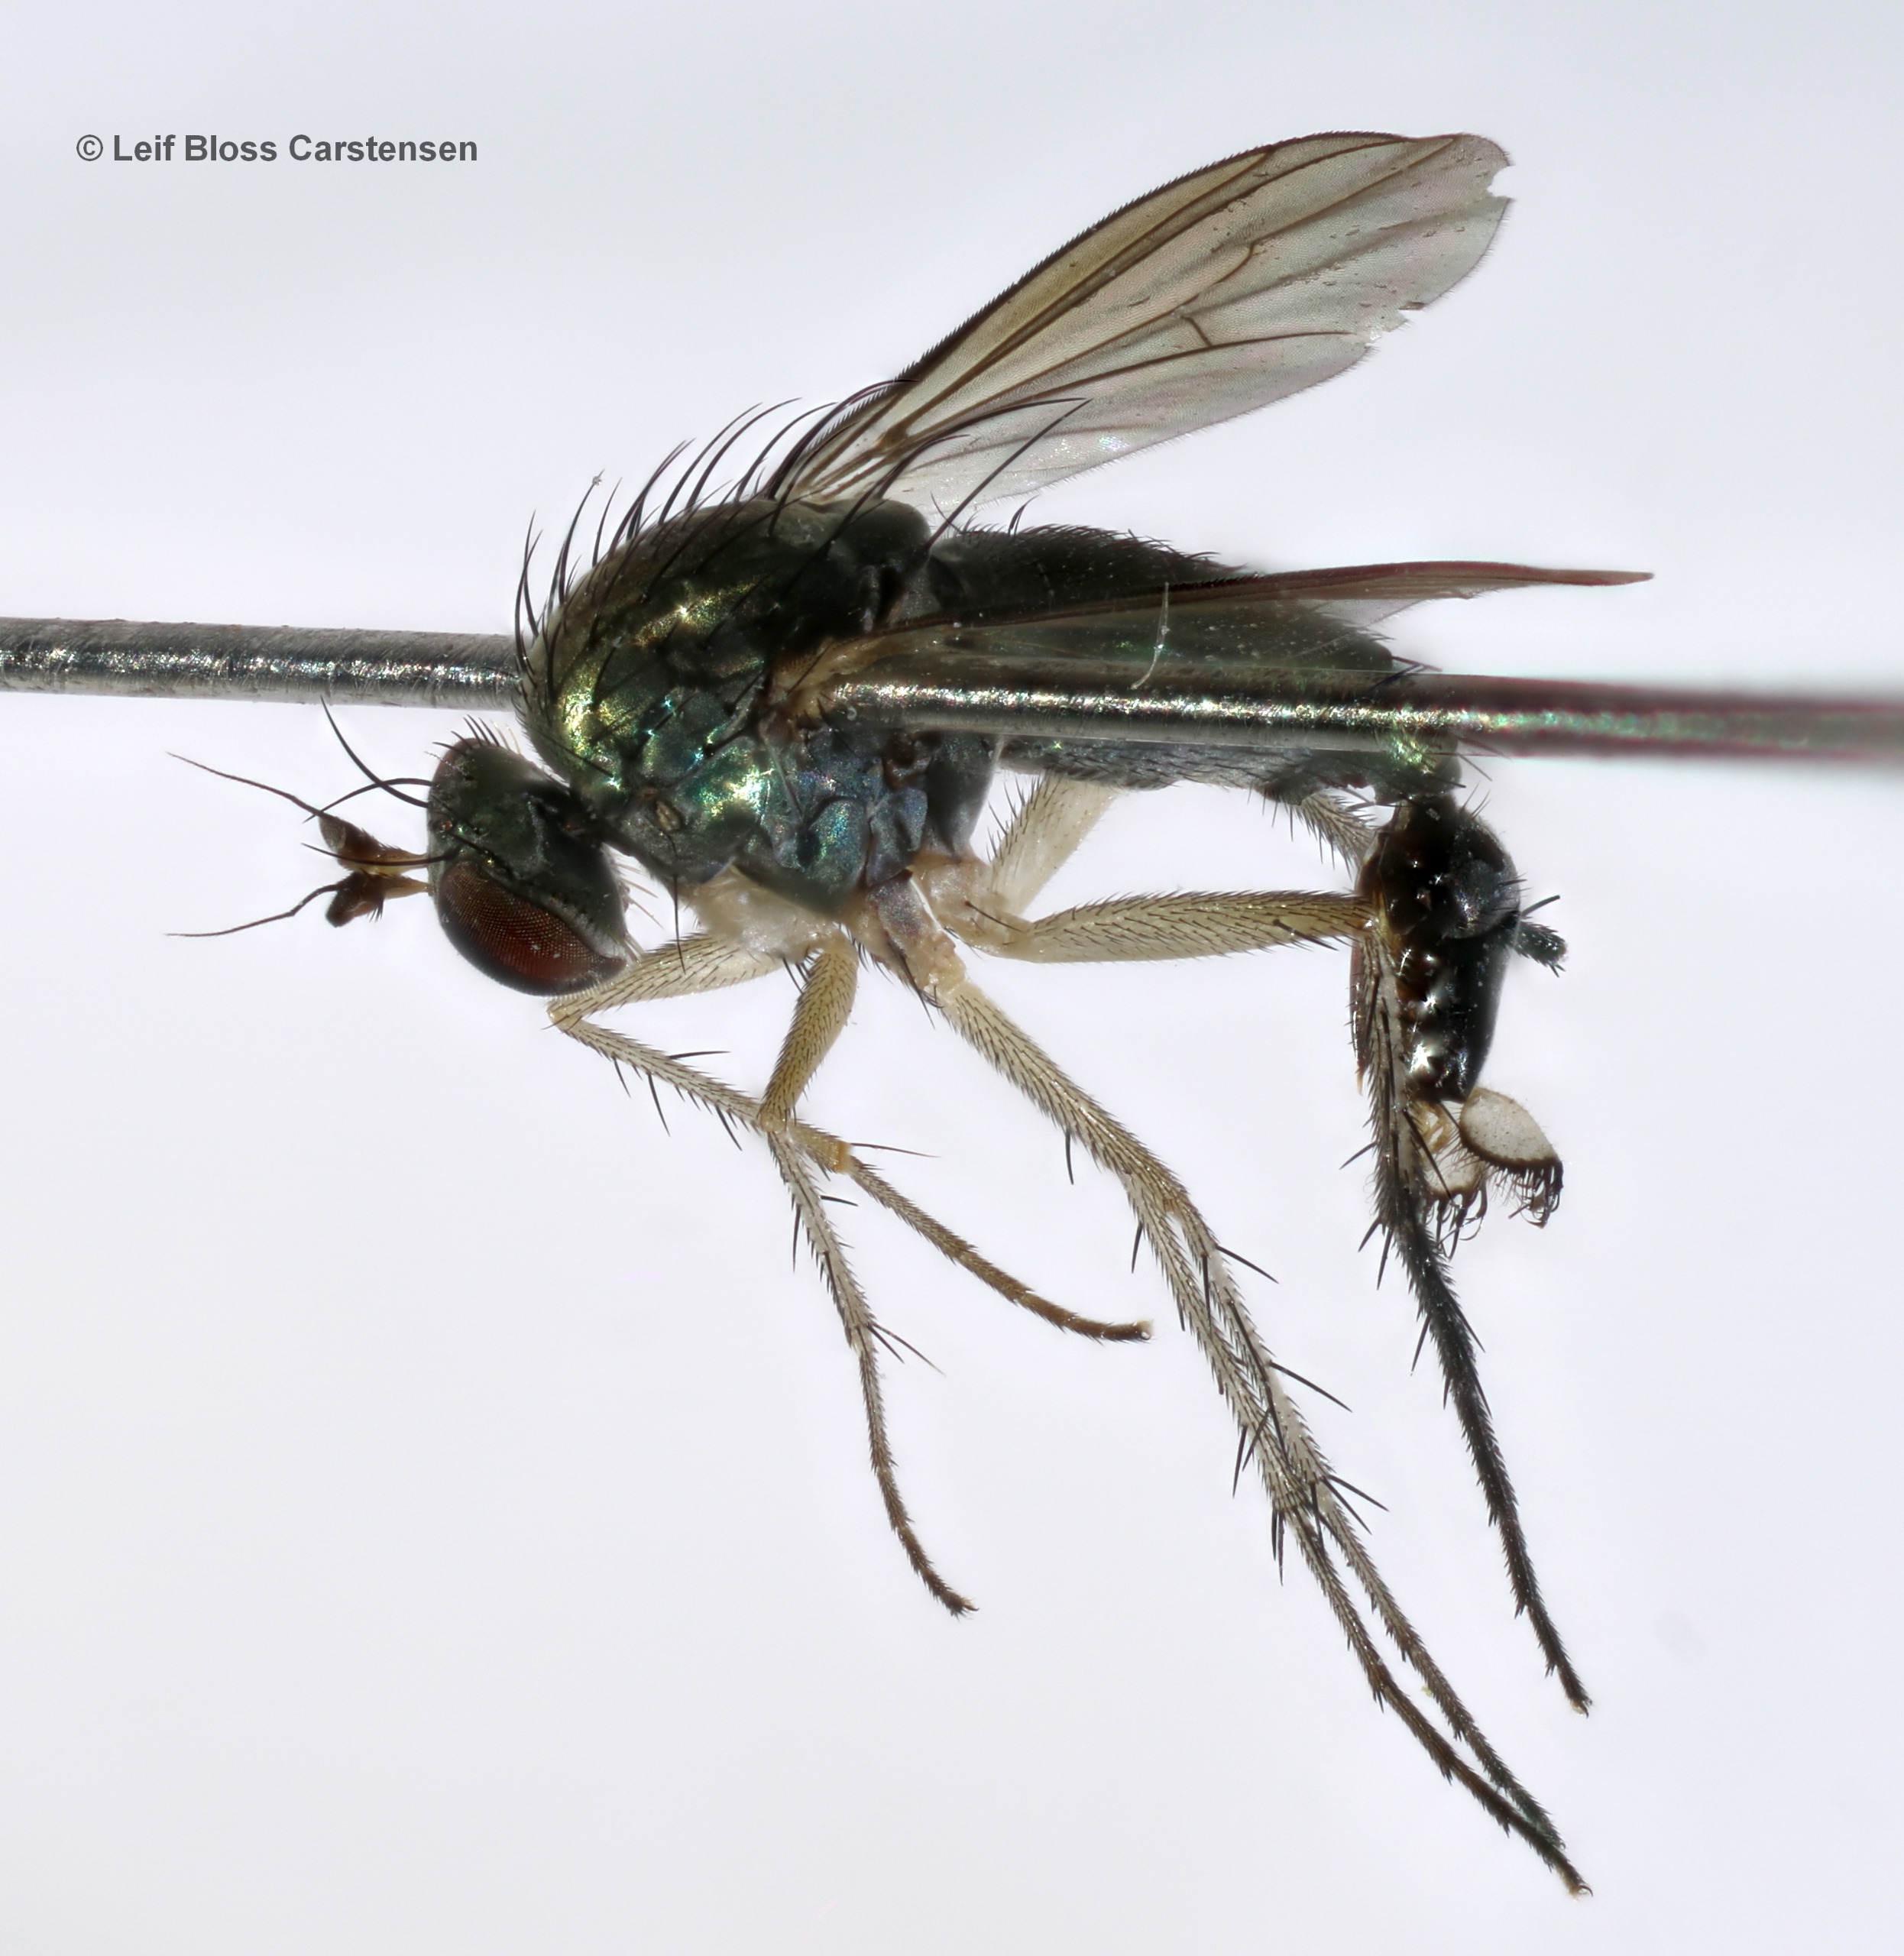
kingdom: Animalia
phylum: Arthropoda
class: Insecta
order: Diptera
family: Dolichopodidae
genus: Dolichopus
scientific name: Dolichopus linearis
